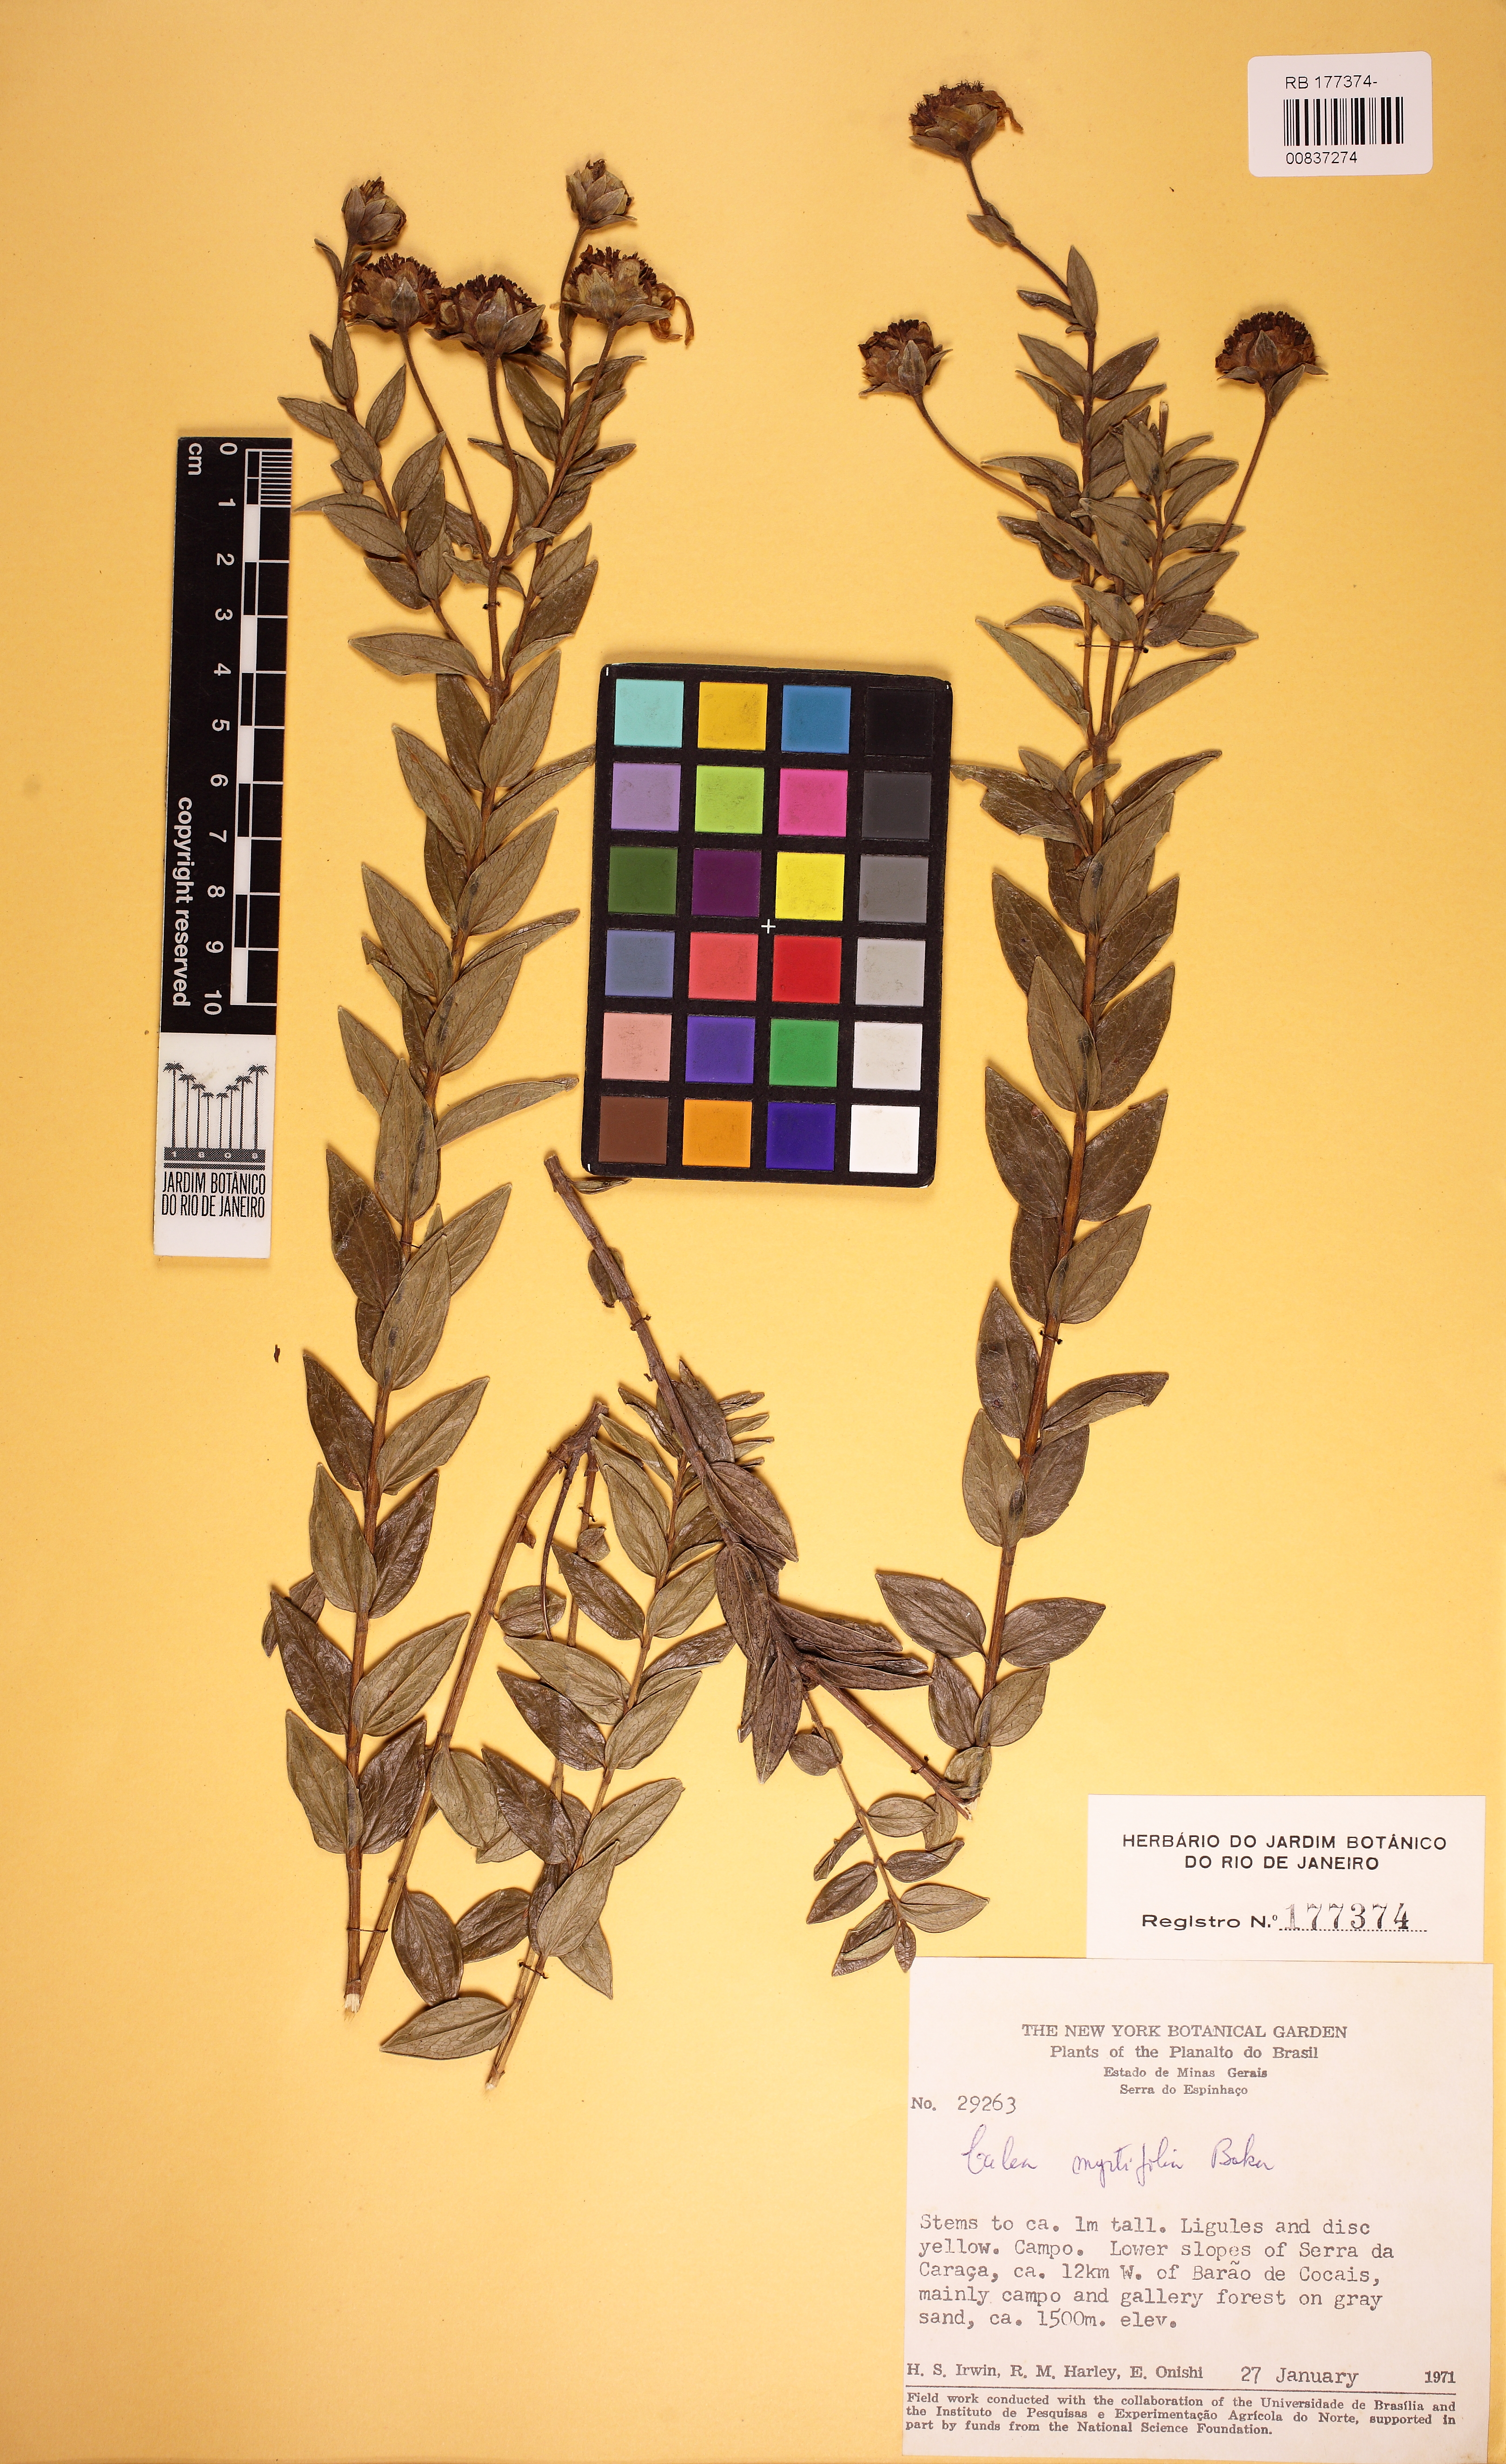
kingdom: Plantae
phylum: Tracheophyta
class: Magnoliopsida
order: Asterales
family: Asteraceae
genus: Calea
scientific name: Calea myrtifolia
